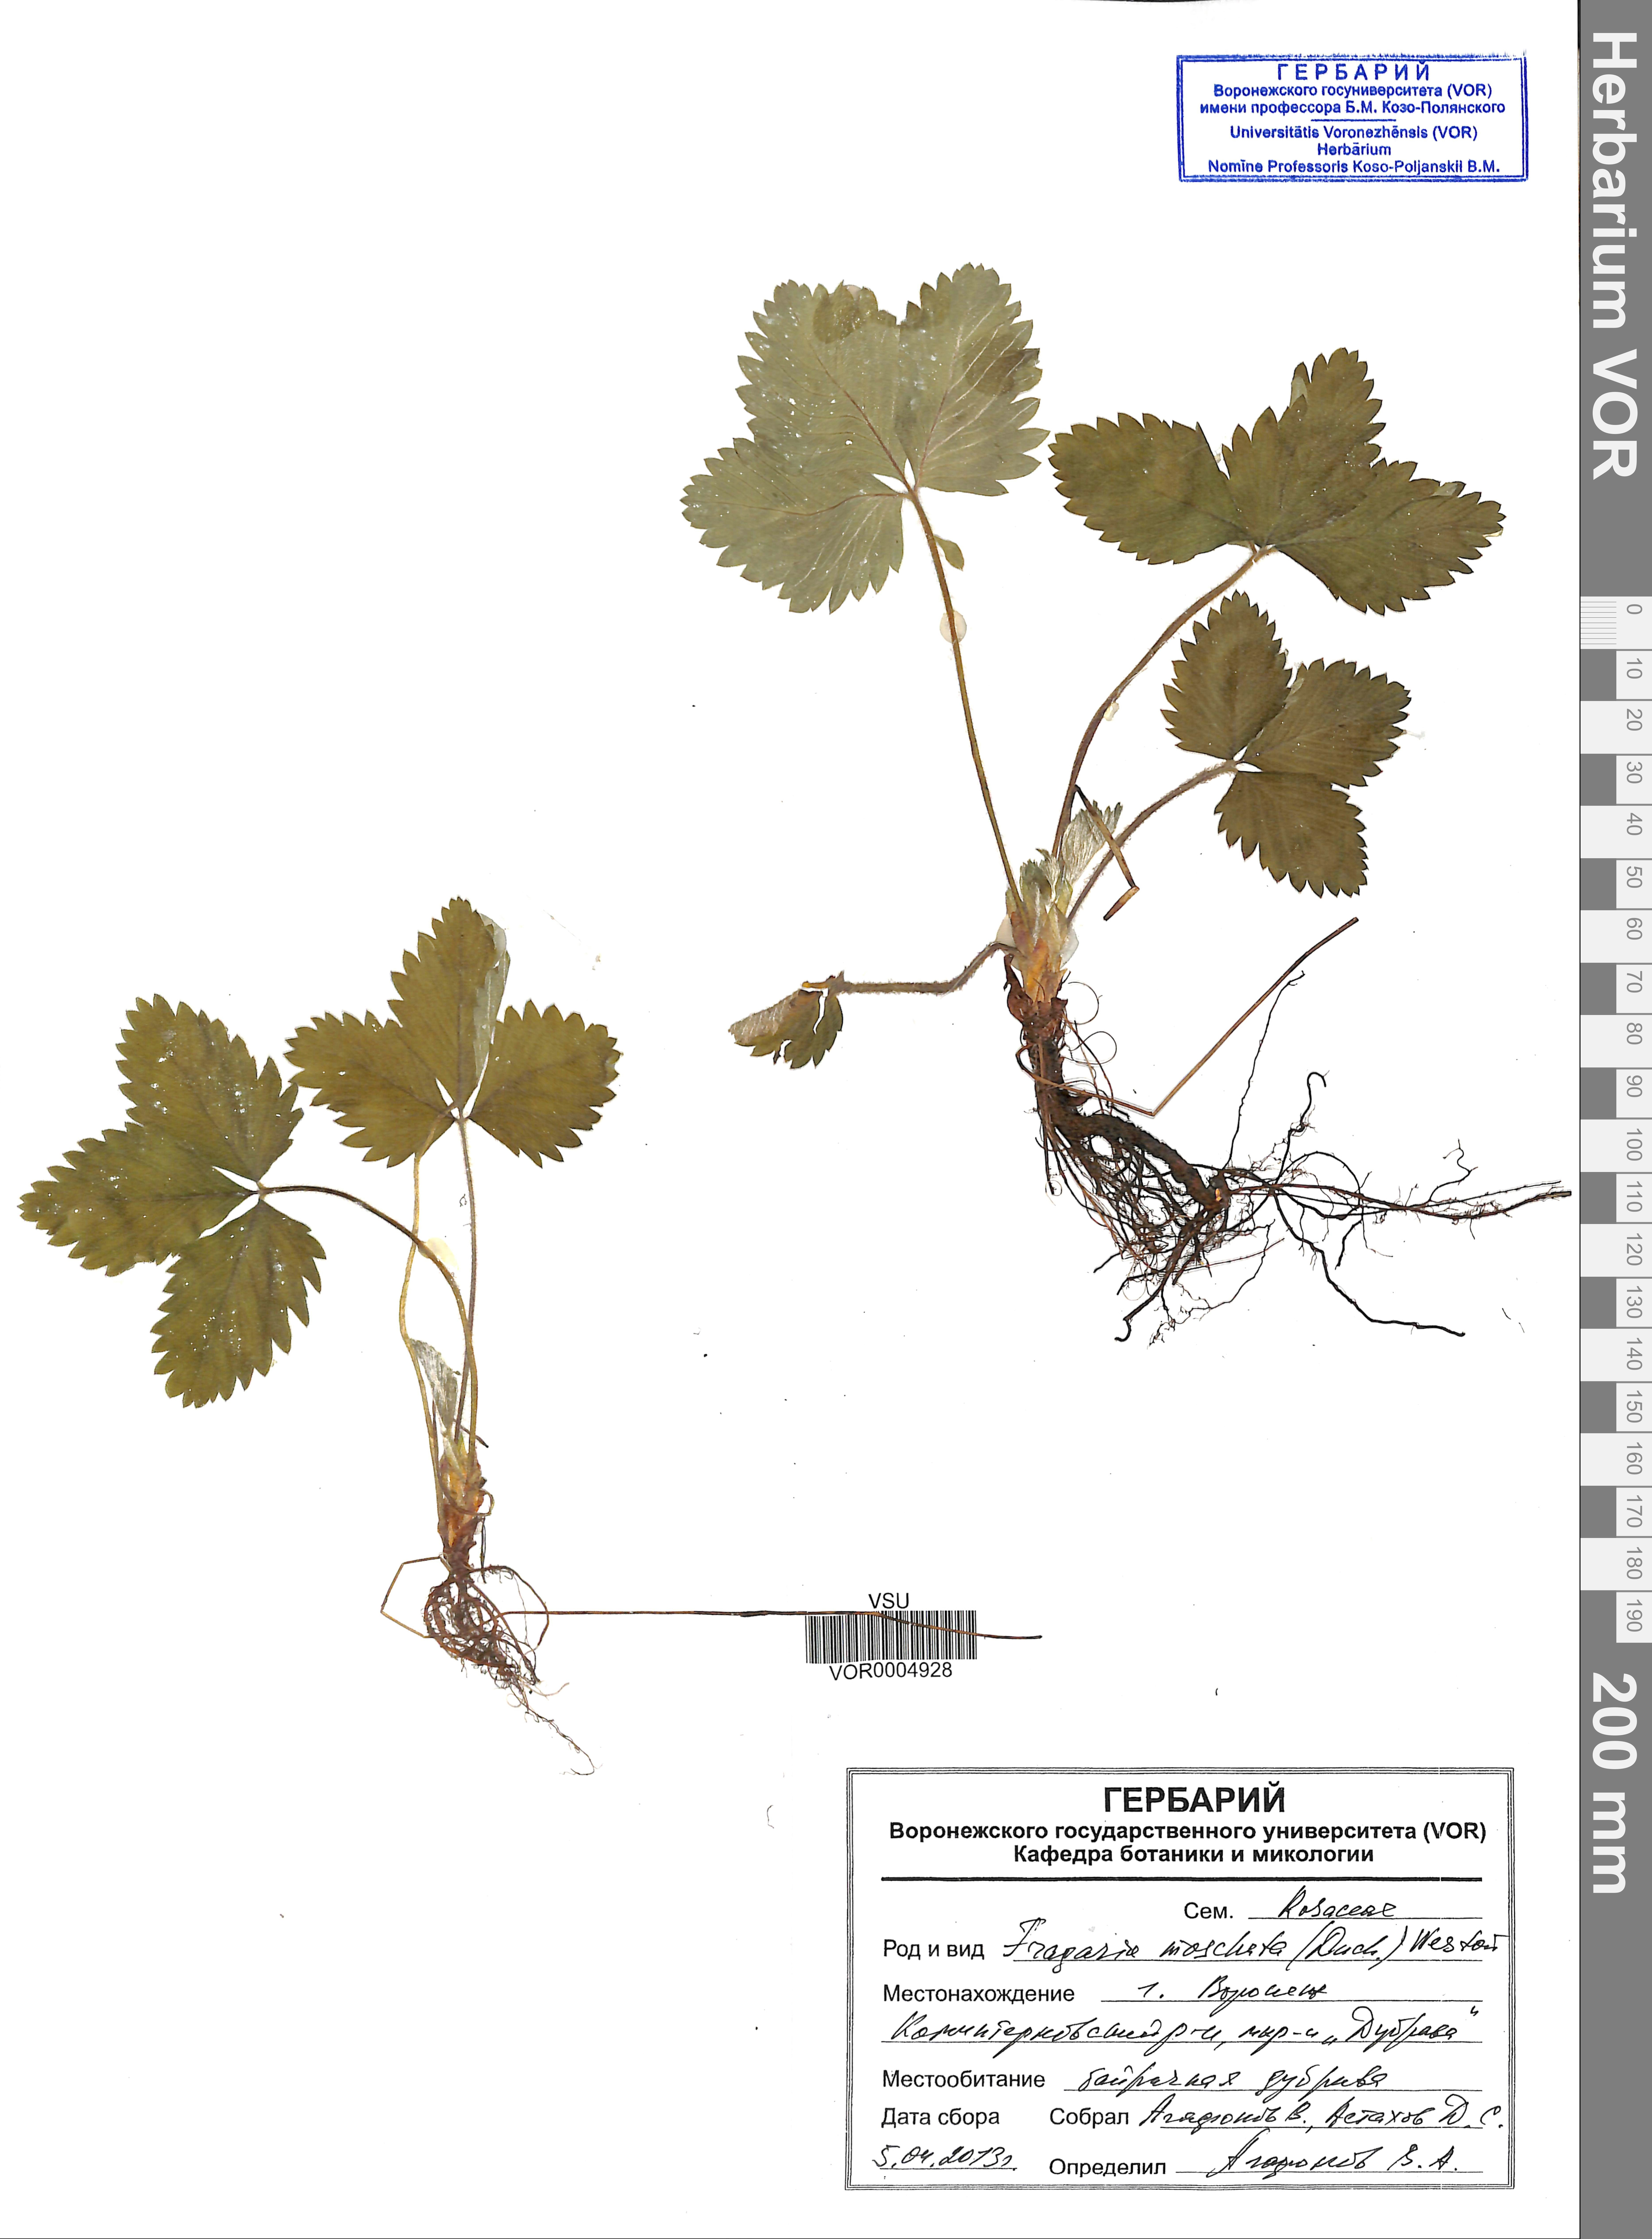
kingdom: Plantae
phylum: Tracheophyta
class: Magnoliopsida
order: Rosales
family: Rosaceae
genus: Fragaria
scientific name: Fragaria moschata
